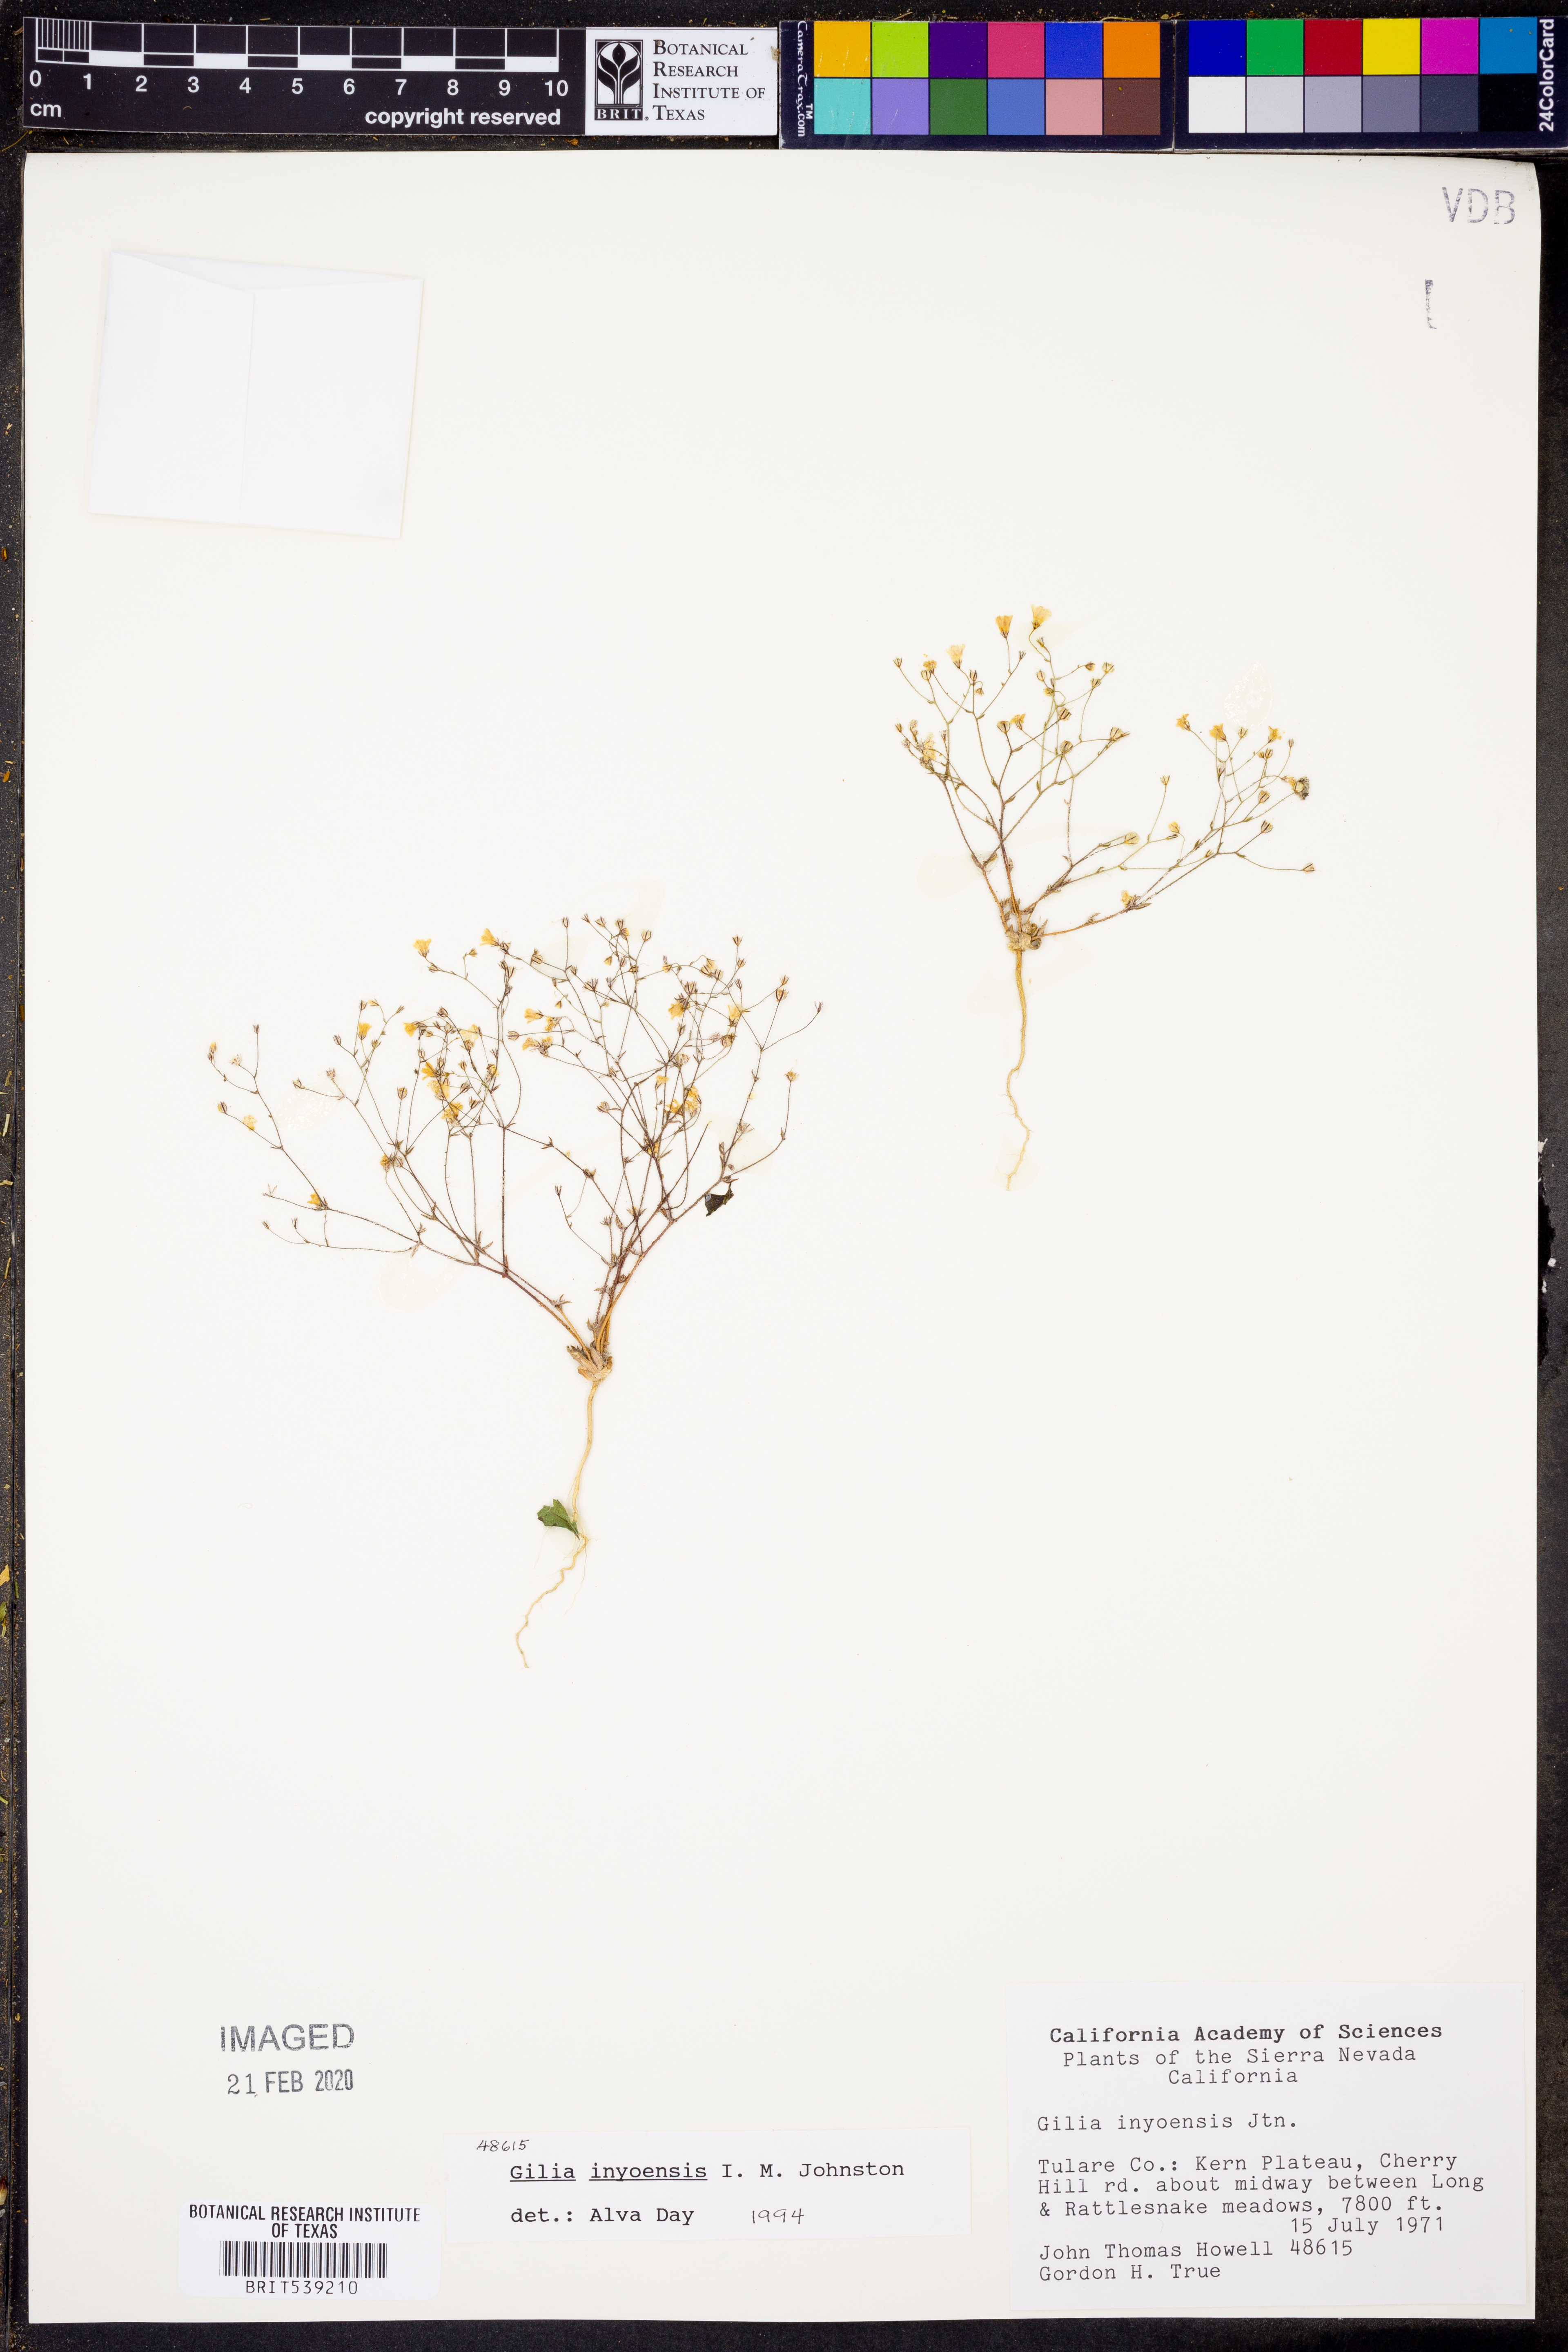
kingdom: Plantae
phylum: Tracheophyta
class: Magnoliopsida
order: Ericales
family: Polemoniaceae
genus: Linanthus
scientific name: Linanthus inyoensis
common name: Inyo gilia
